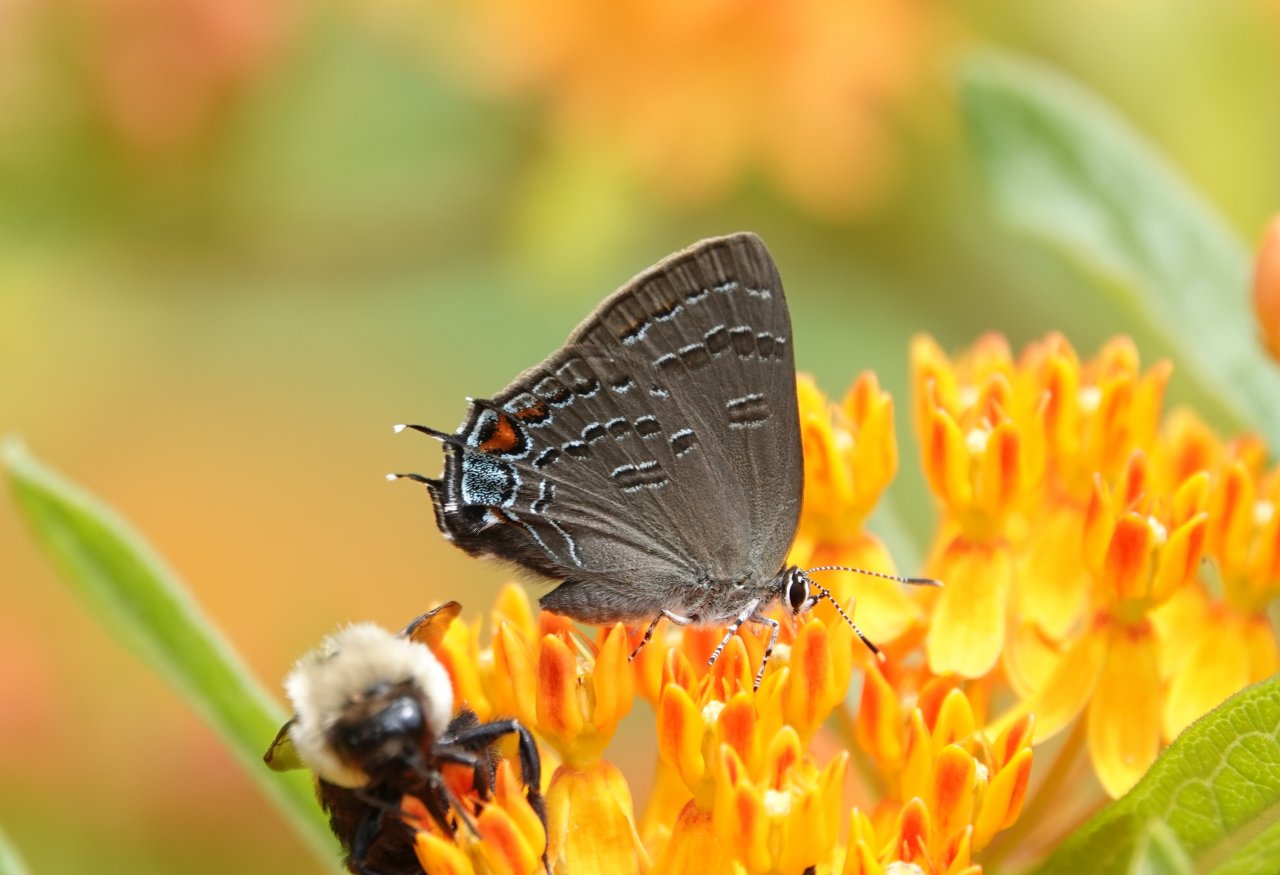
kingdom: Animalia
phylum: Arthropoda
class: Insecta
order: Lepidoptera
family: Lycaenidae
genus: Satyrium
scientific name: Satyrium calanus
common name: Banded Hairstreak
